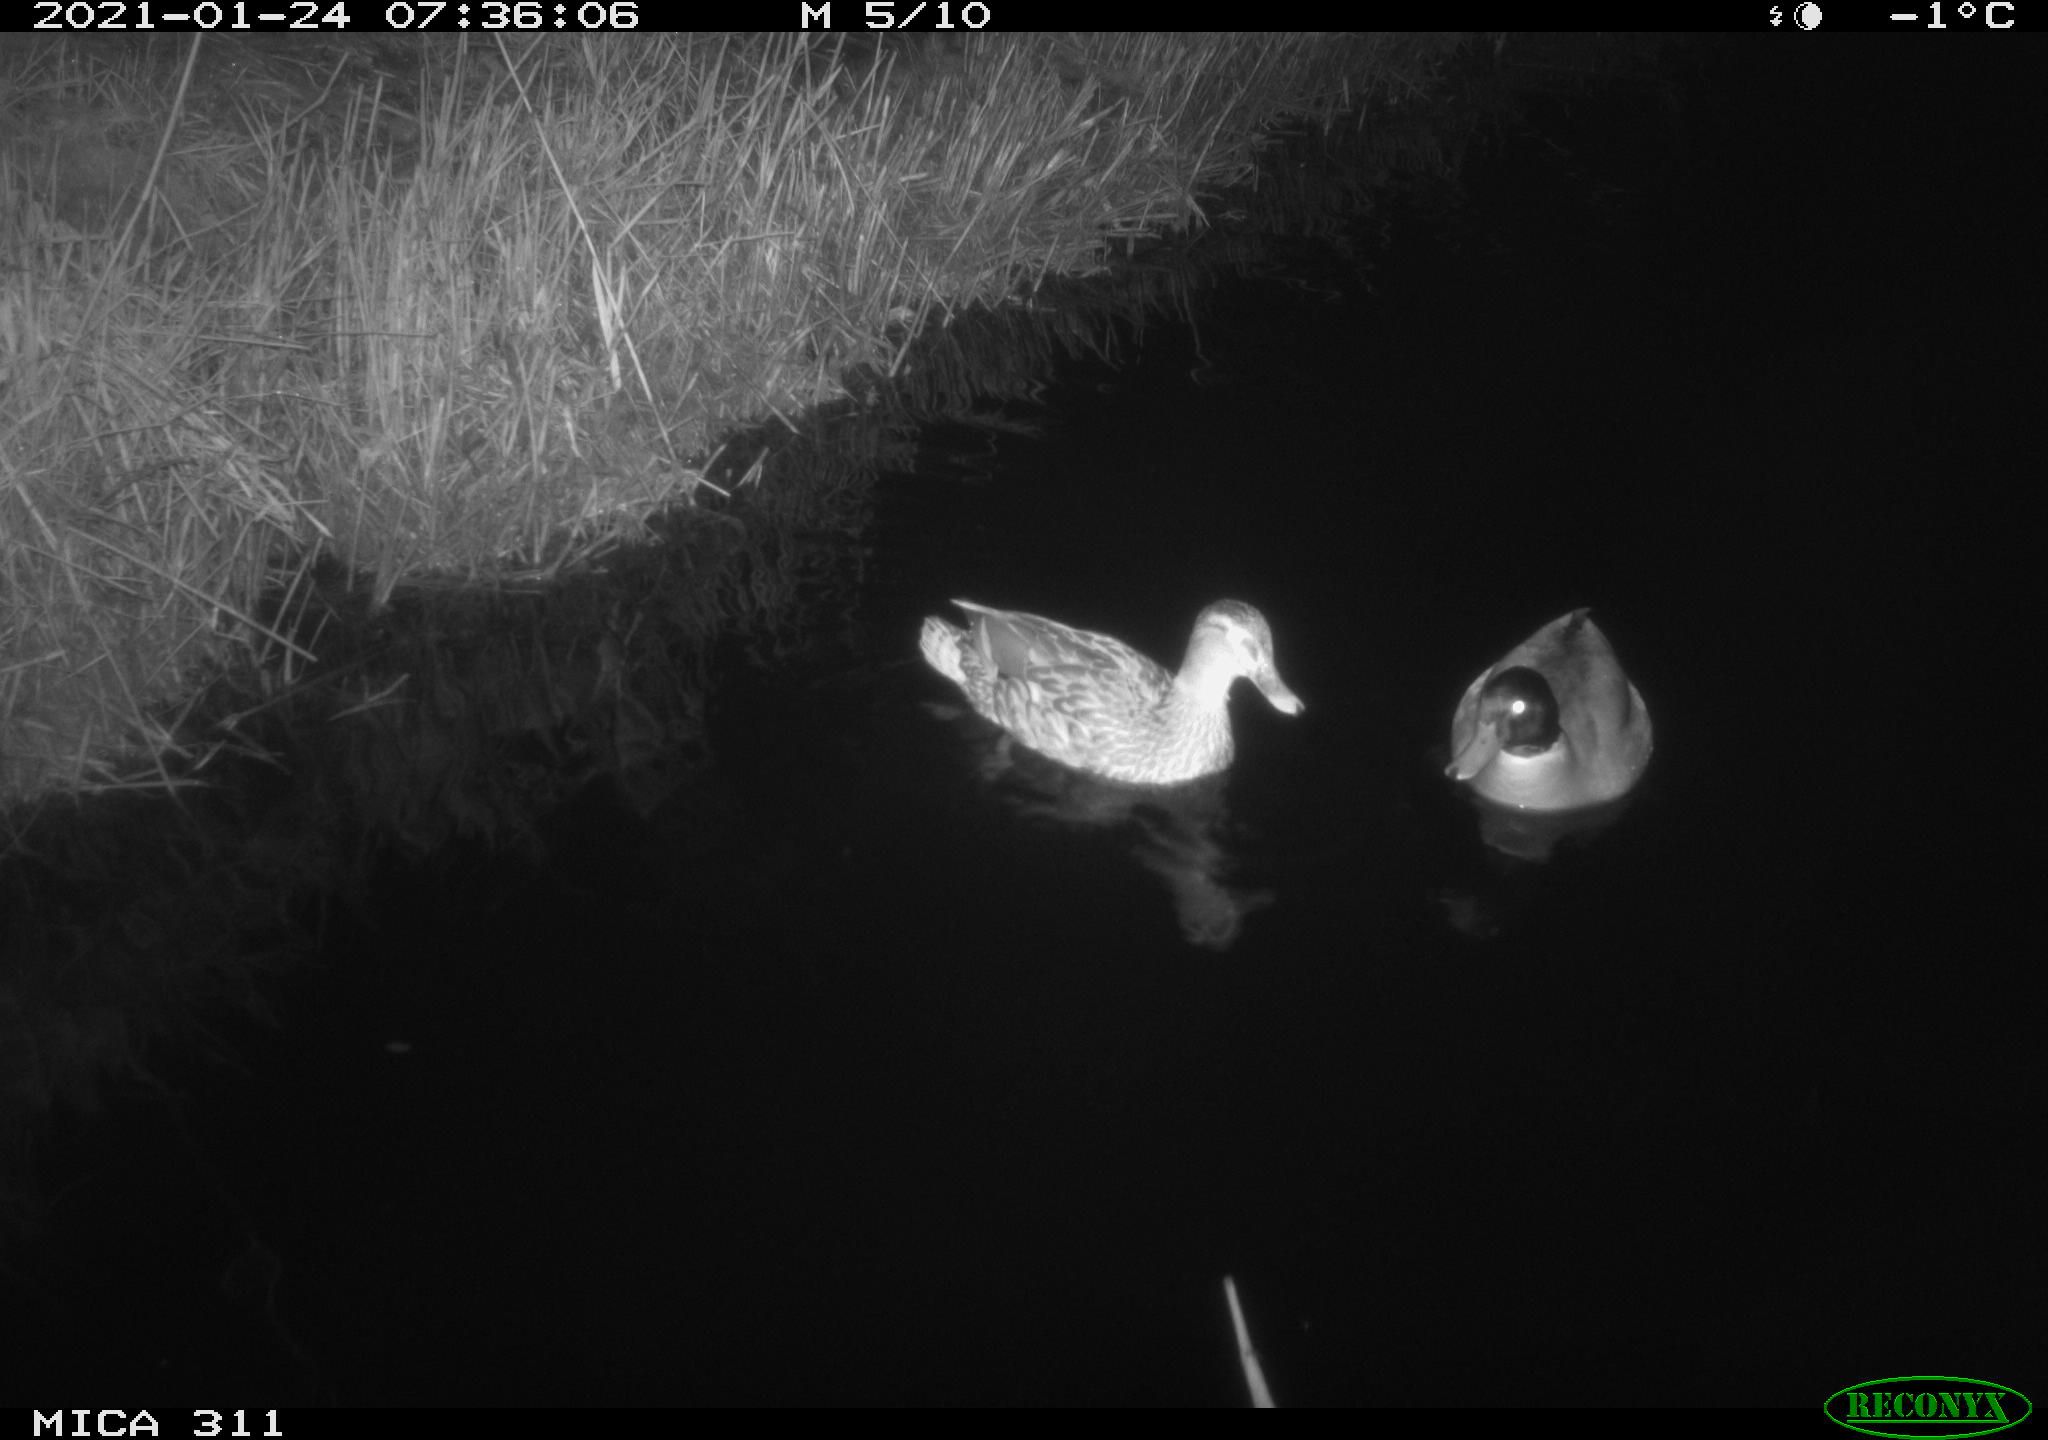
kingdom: Animalia
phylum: Chordata
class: Aves
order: Anseriformes
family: Anatidae
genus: Anas
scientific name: Anas
